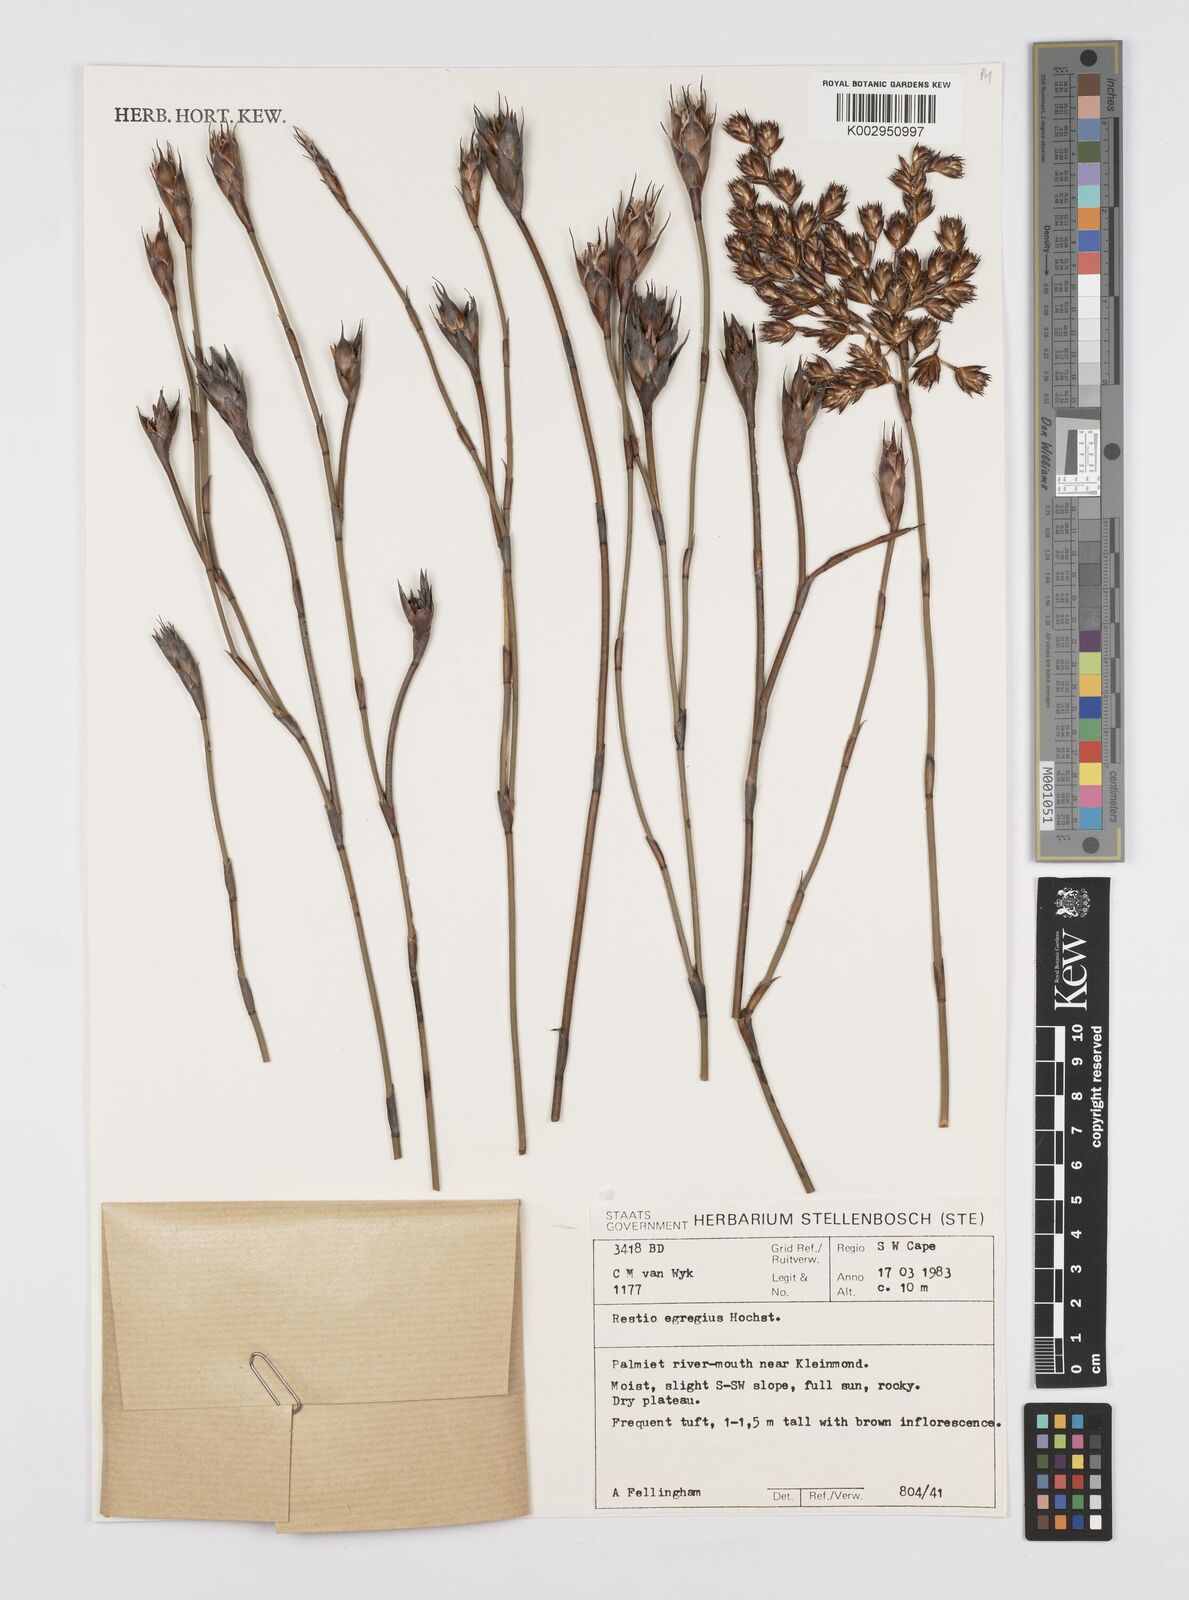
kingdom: Plantae
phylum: Tracheophyta
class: Liliopsida
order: Poales
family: Restionaceae
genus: Restio
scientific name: Restio egregius
